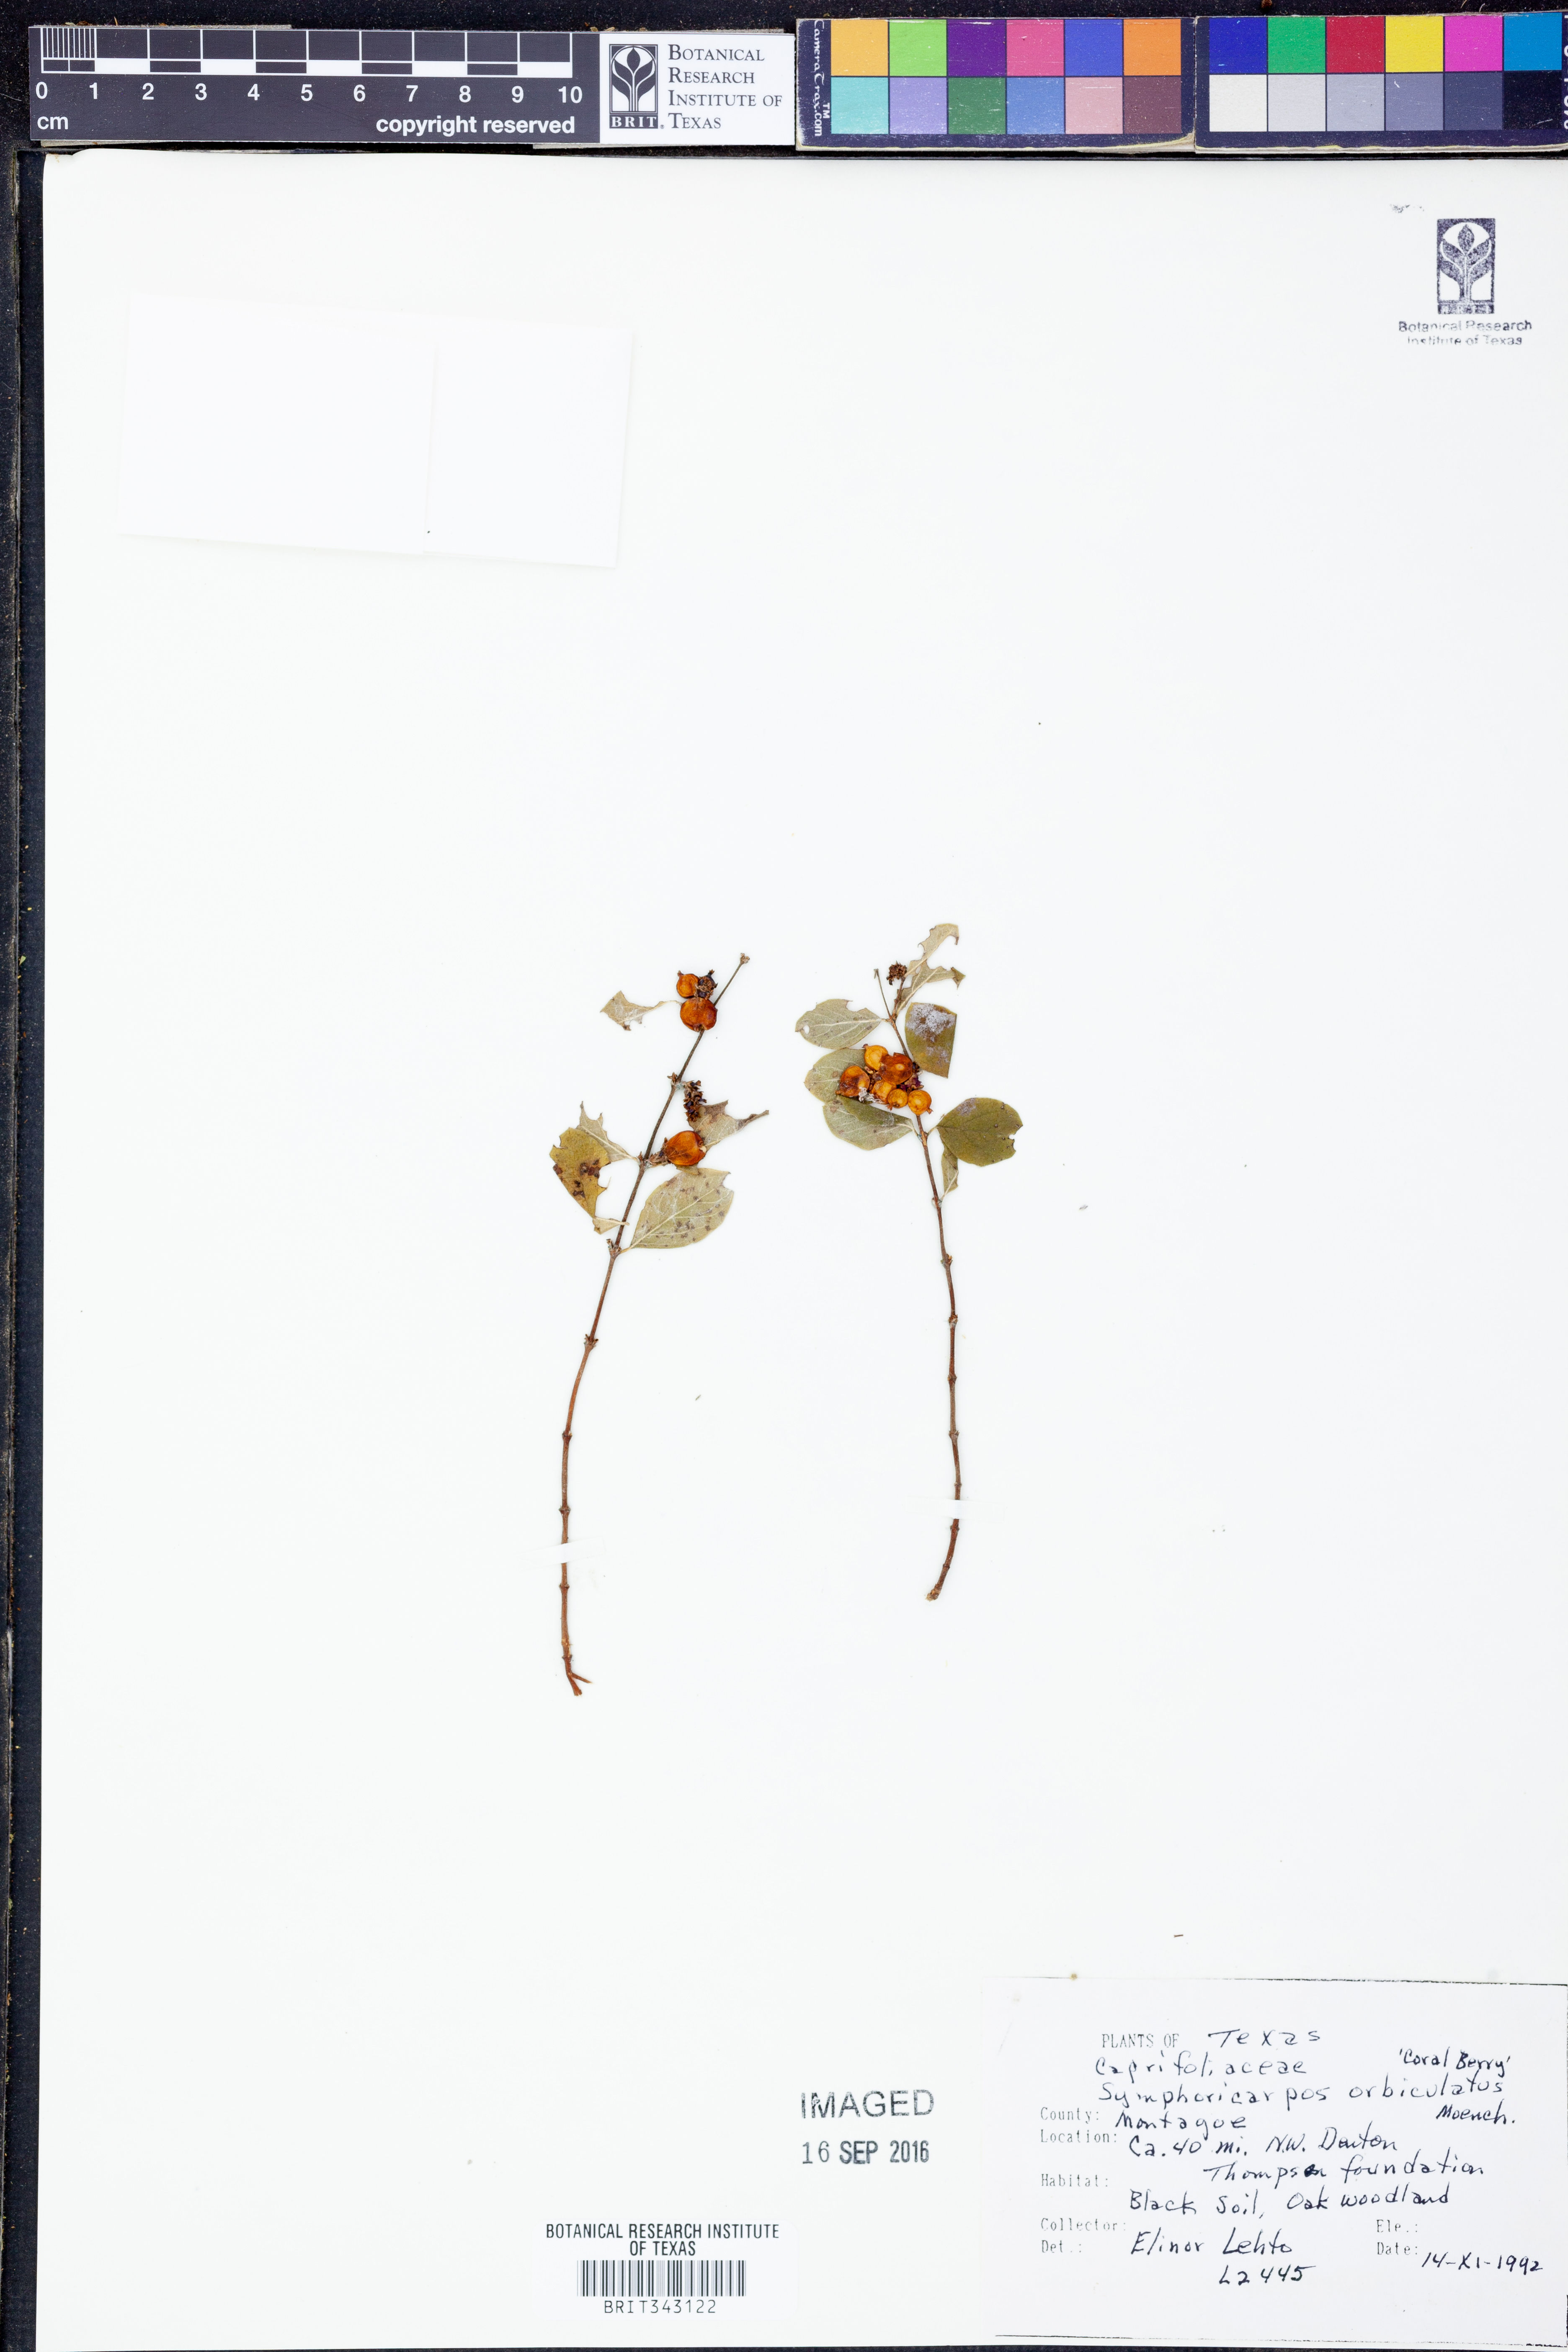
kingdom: Plantae
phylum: Tracheophyta
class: Magnoliopsida
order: Dipsacales
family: Caprifoliaceae
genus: Symphoricarpos
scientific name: Symphoricarpos orbiculatus
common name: Coralberry
